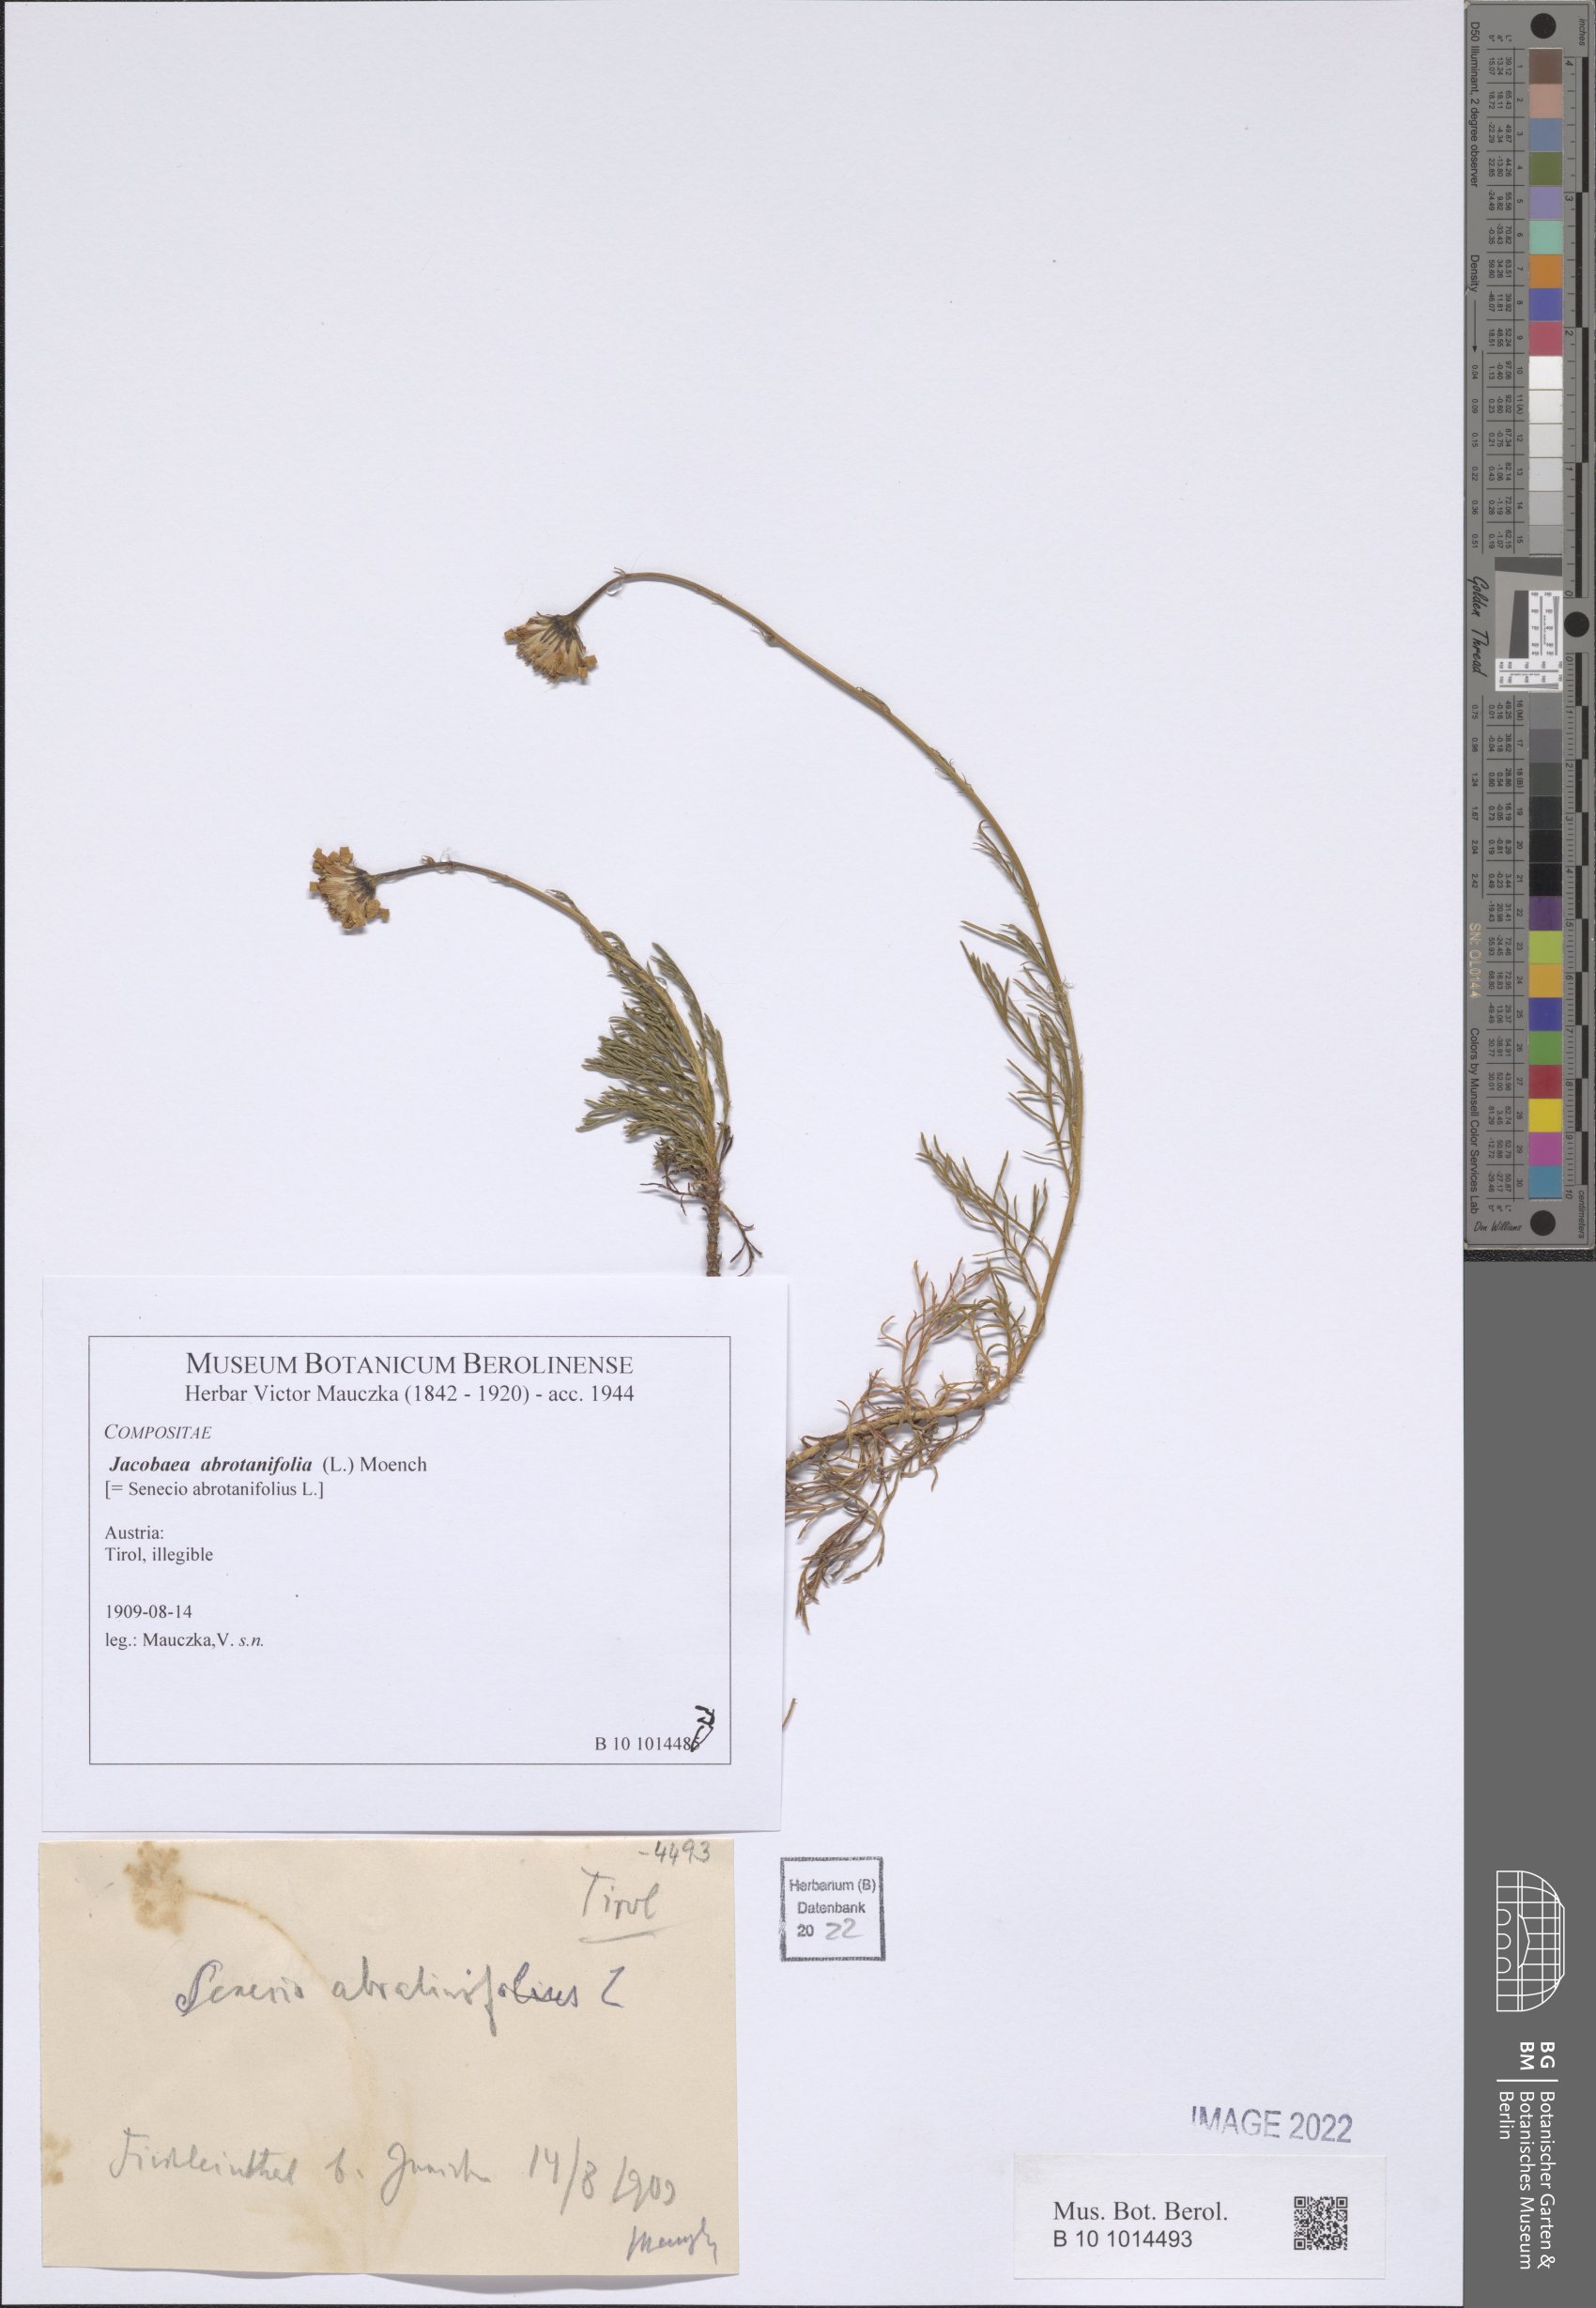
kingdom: Plantae
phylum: Tracheophyta
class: Magnoliopsida
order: Asterales
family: Asteraceae
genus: Jacobaea
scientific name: Jacobaea abrotanifolia
